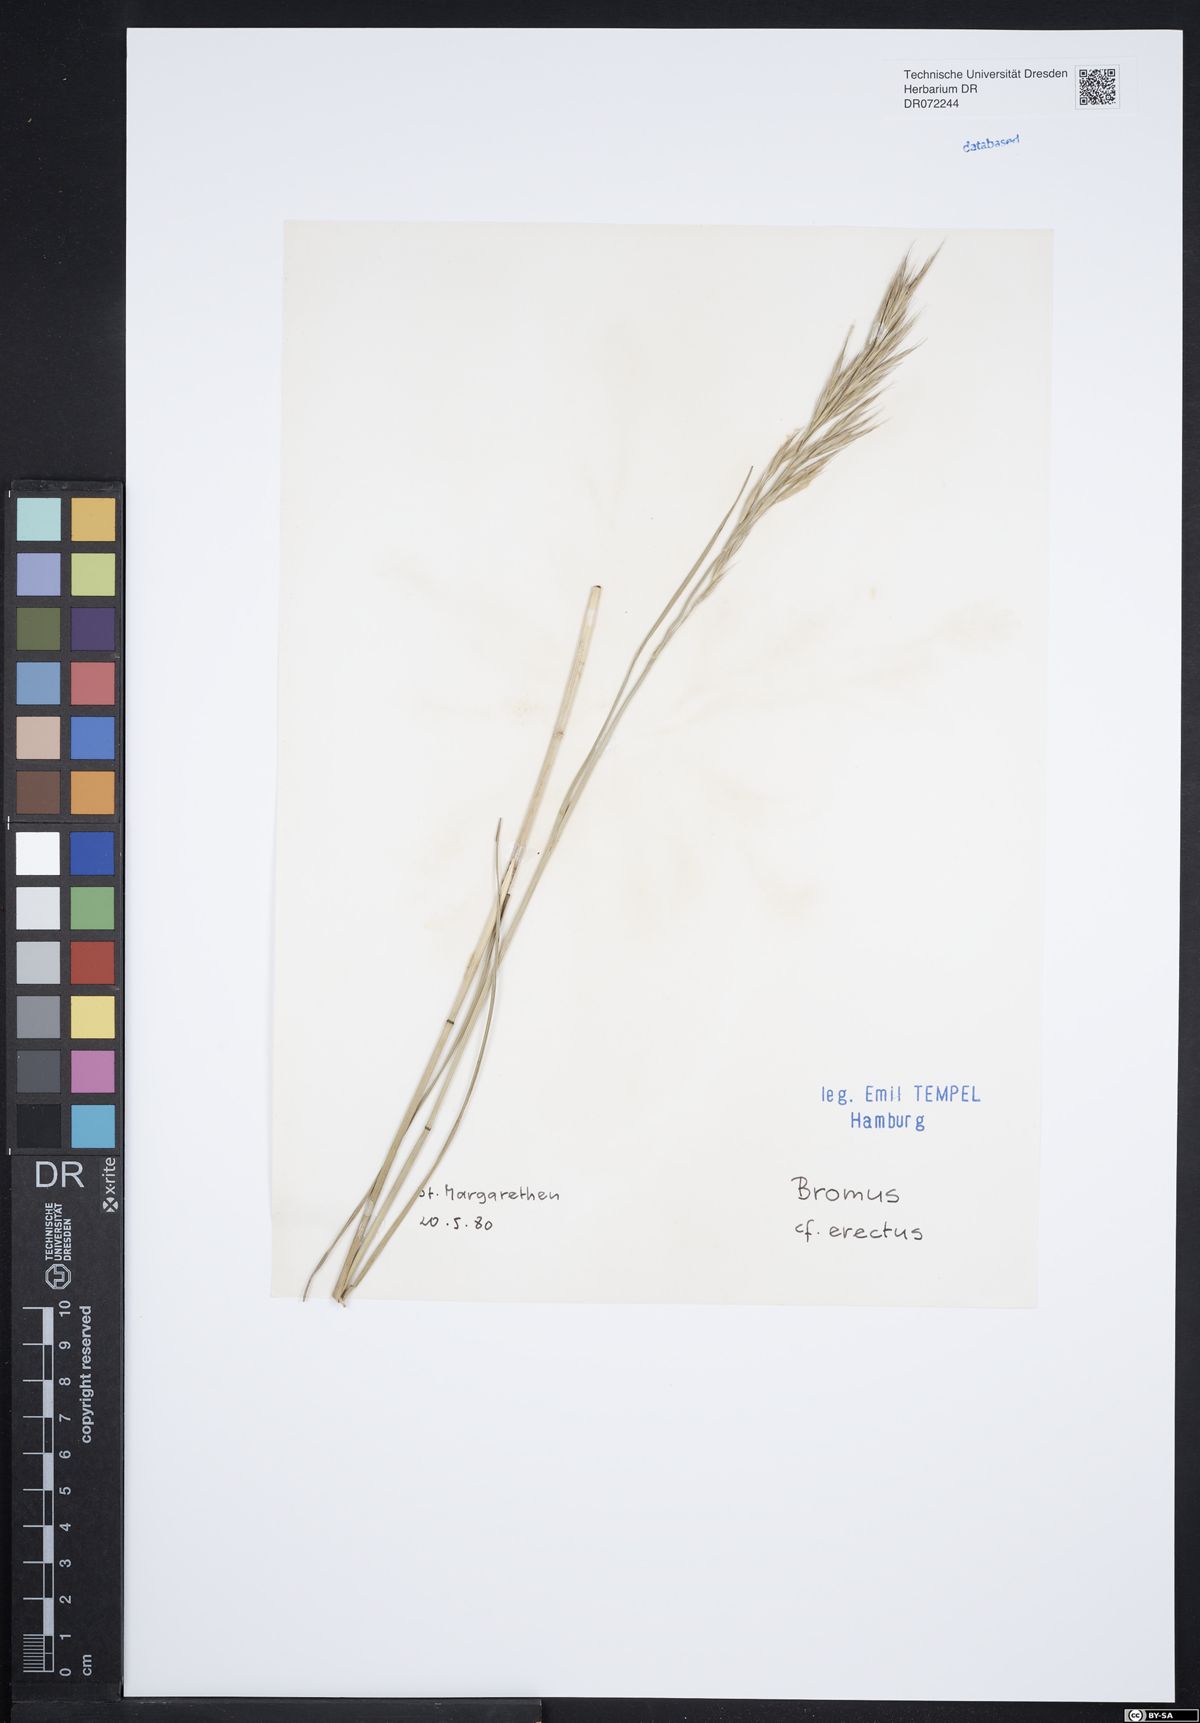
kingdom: Plantae
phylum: Tracheophyta
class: Liliopsida
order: Poales
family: Poaceae
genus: Bromus
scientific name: Bromus erectus
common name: Erect brome
